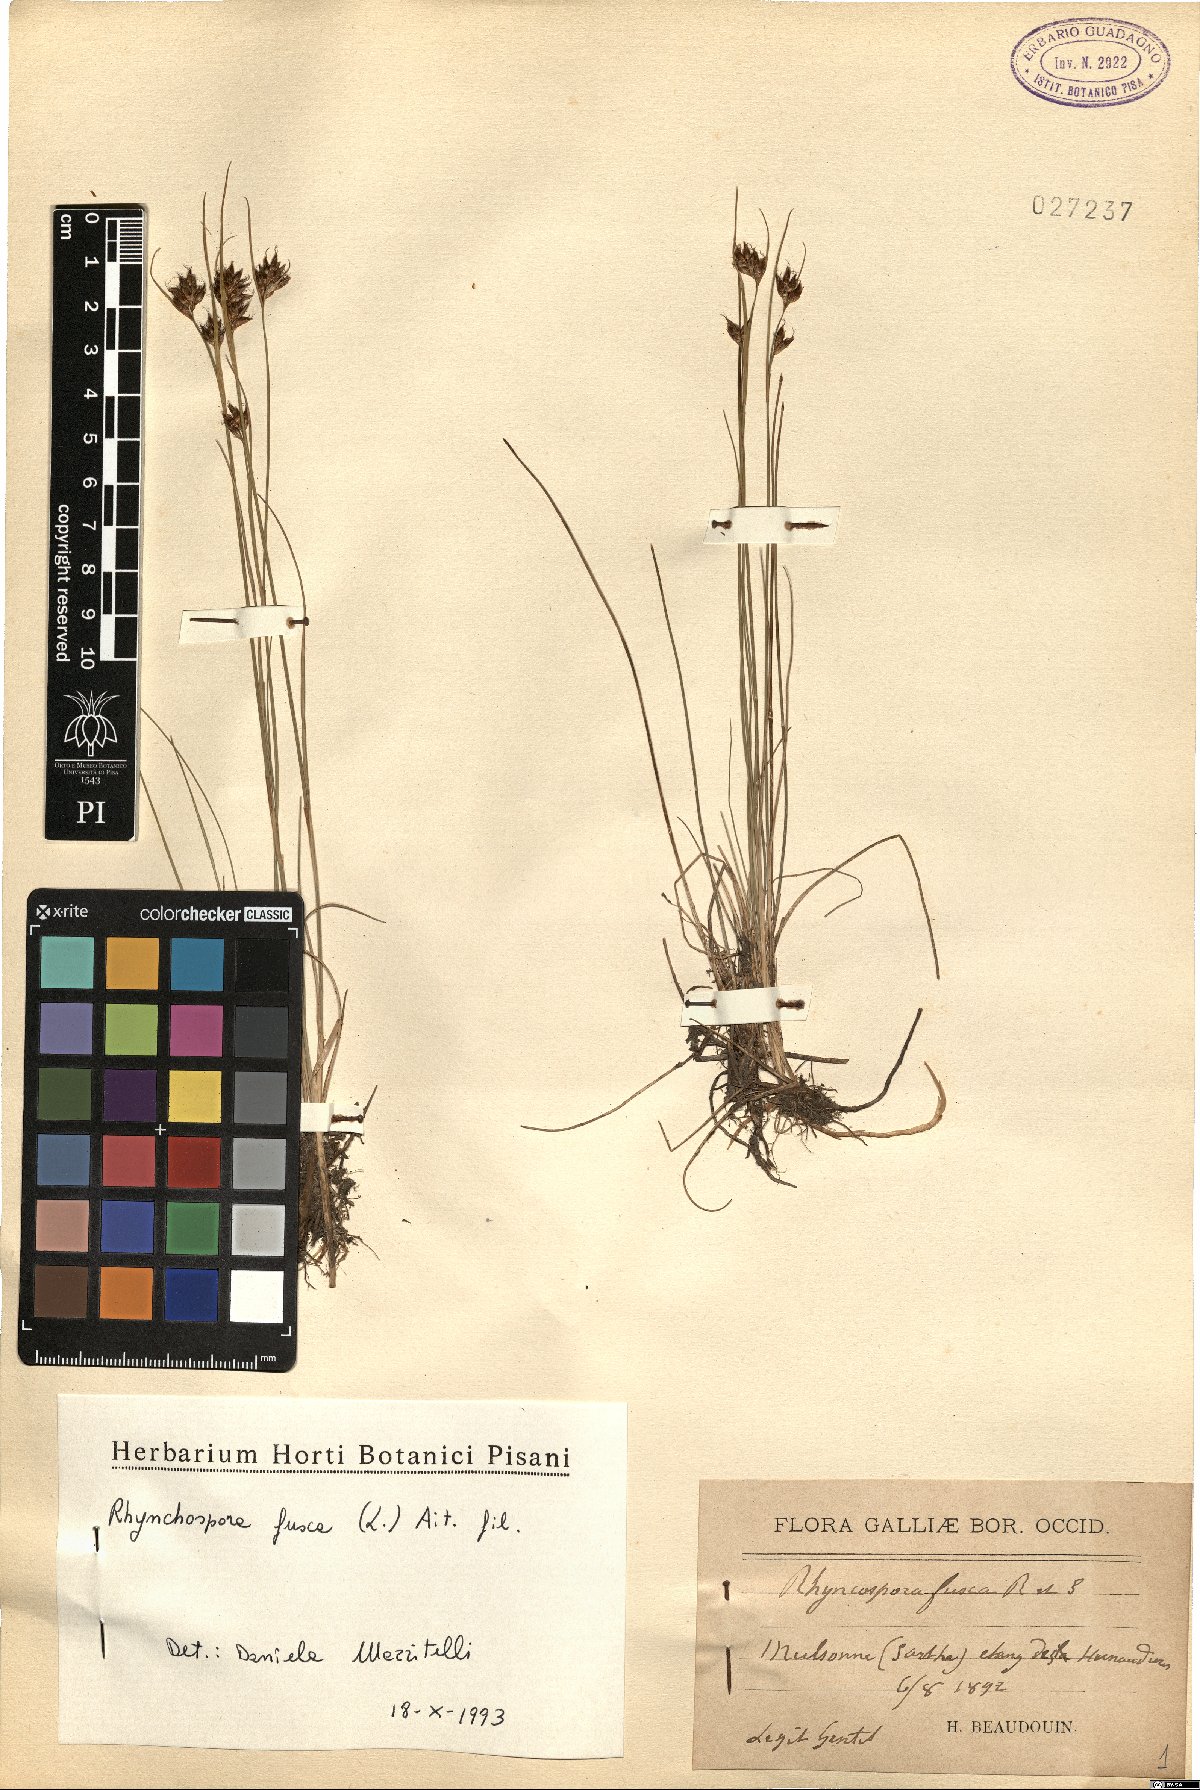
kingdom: Plantae
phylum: Tracheophyta
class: Liliopsida
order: Poales
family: Cyperaceae
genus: Rhynchospora
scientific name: Rhynchospora fusca
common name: Brown beak-sedge
